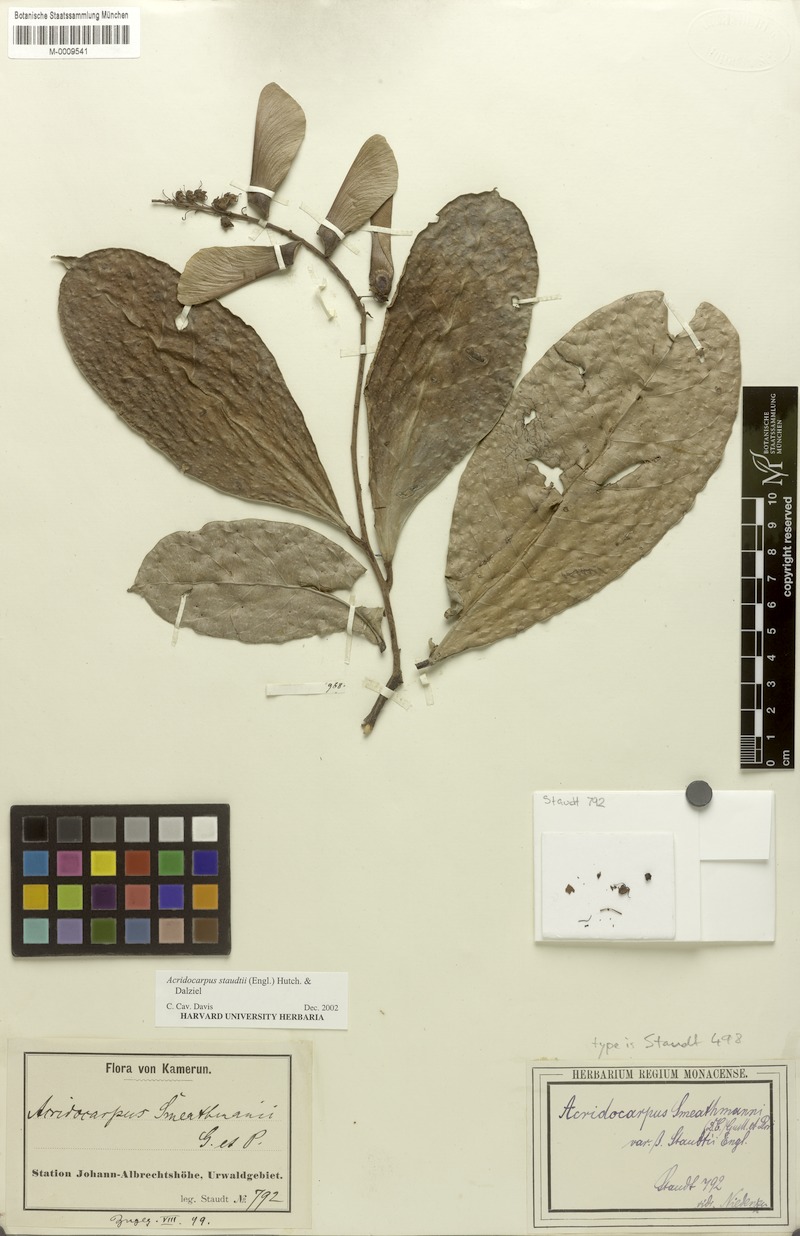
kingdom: Plantae
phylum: Tracheophyta
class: Magnoliopsida
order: Malpighiales
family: Malpighiaceae
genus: Acridocarpus
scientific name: Acridocarpus staudtii
